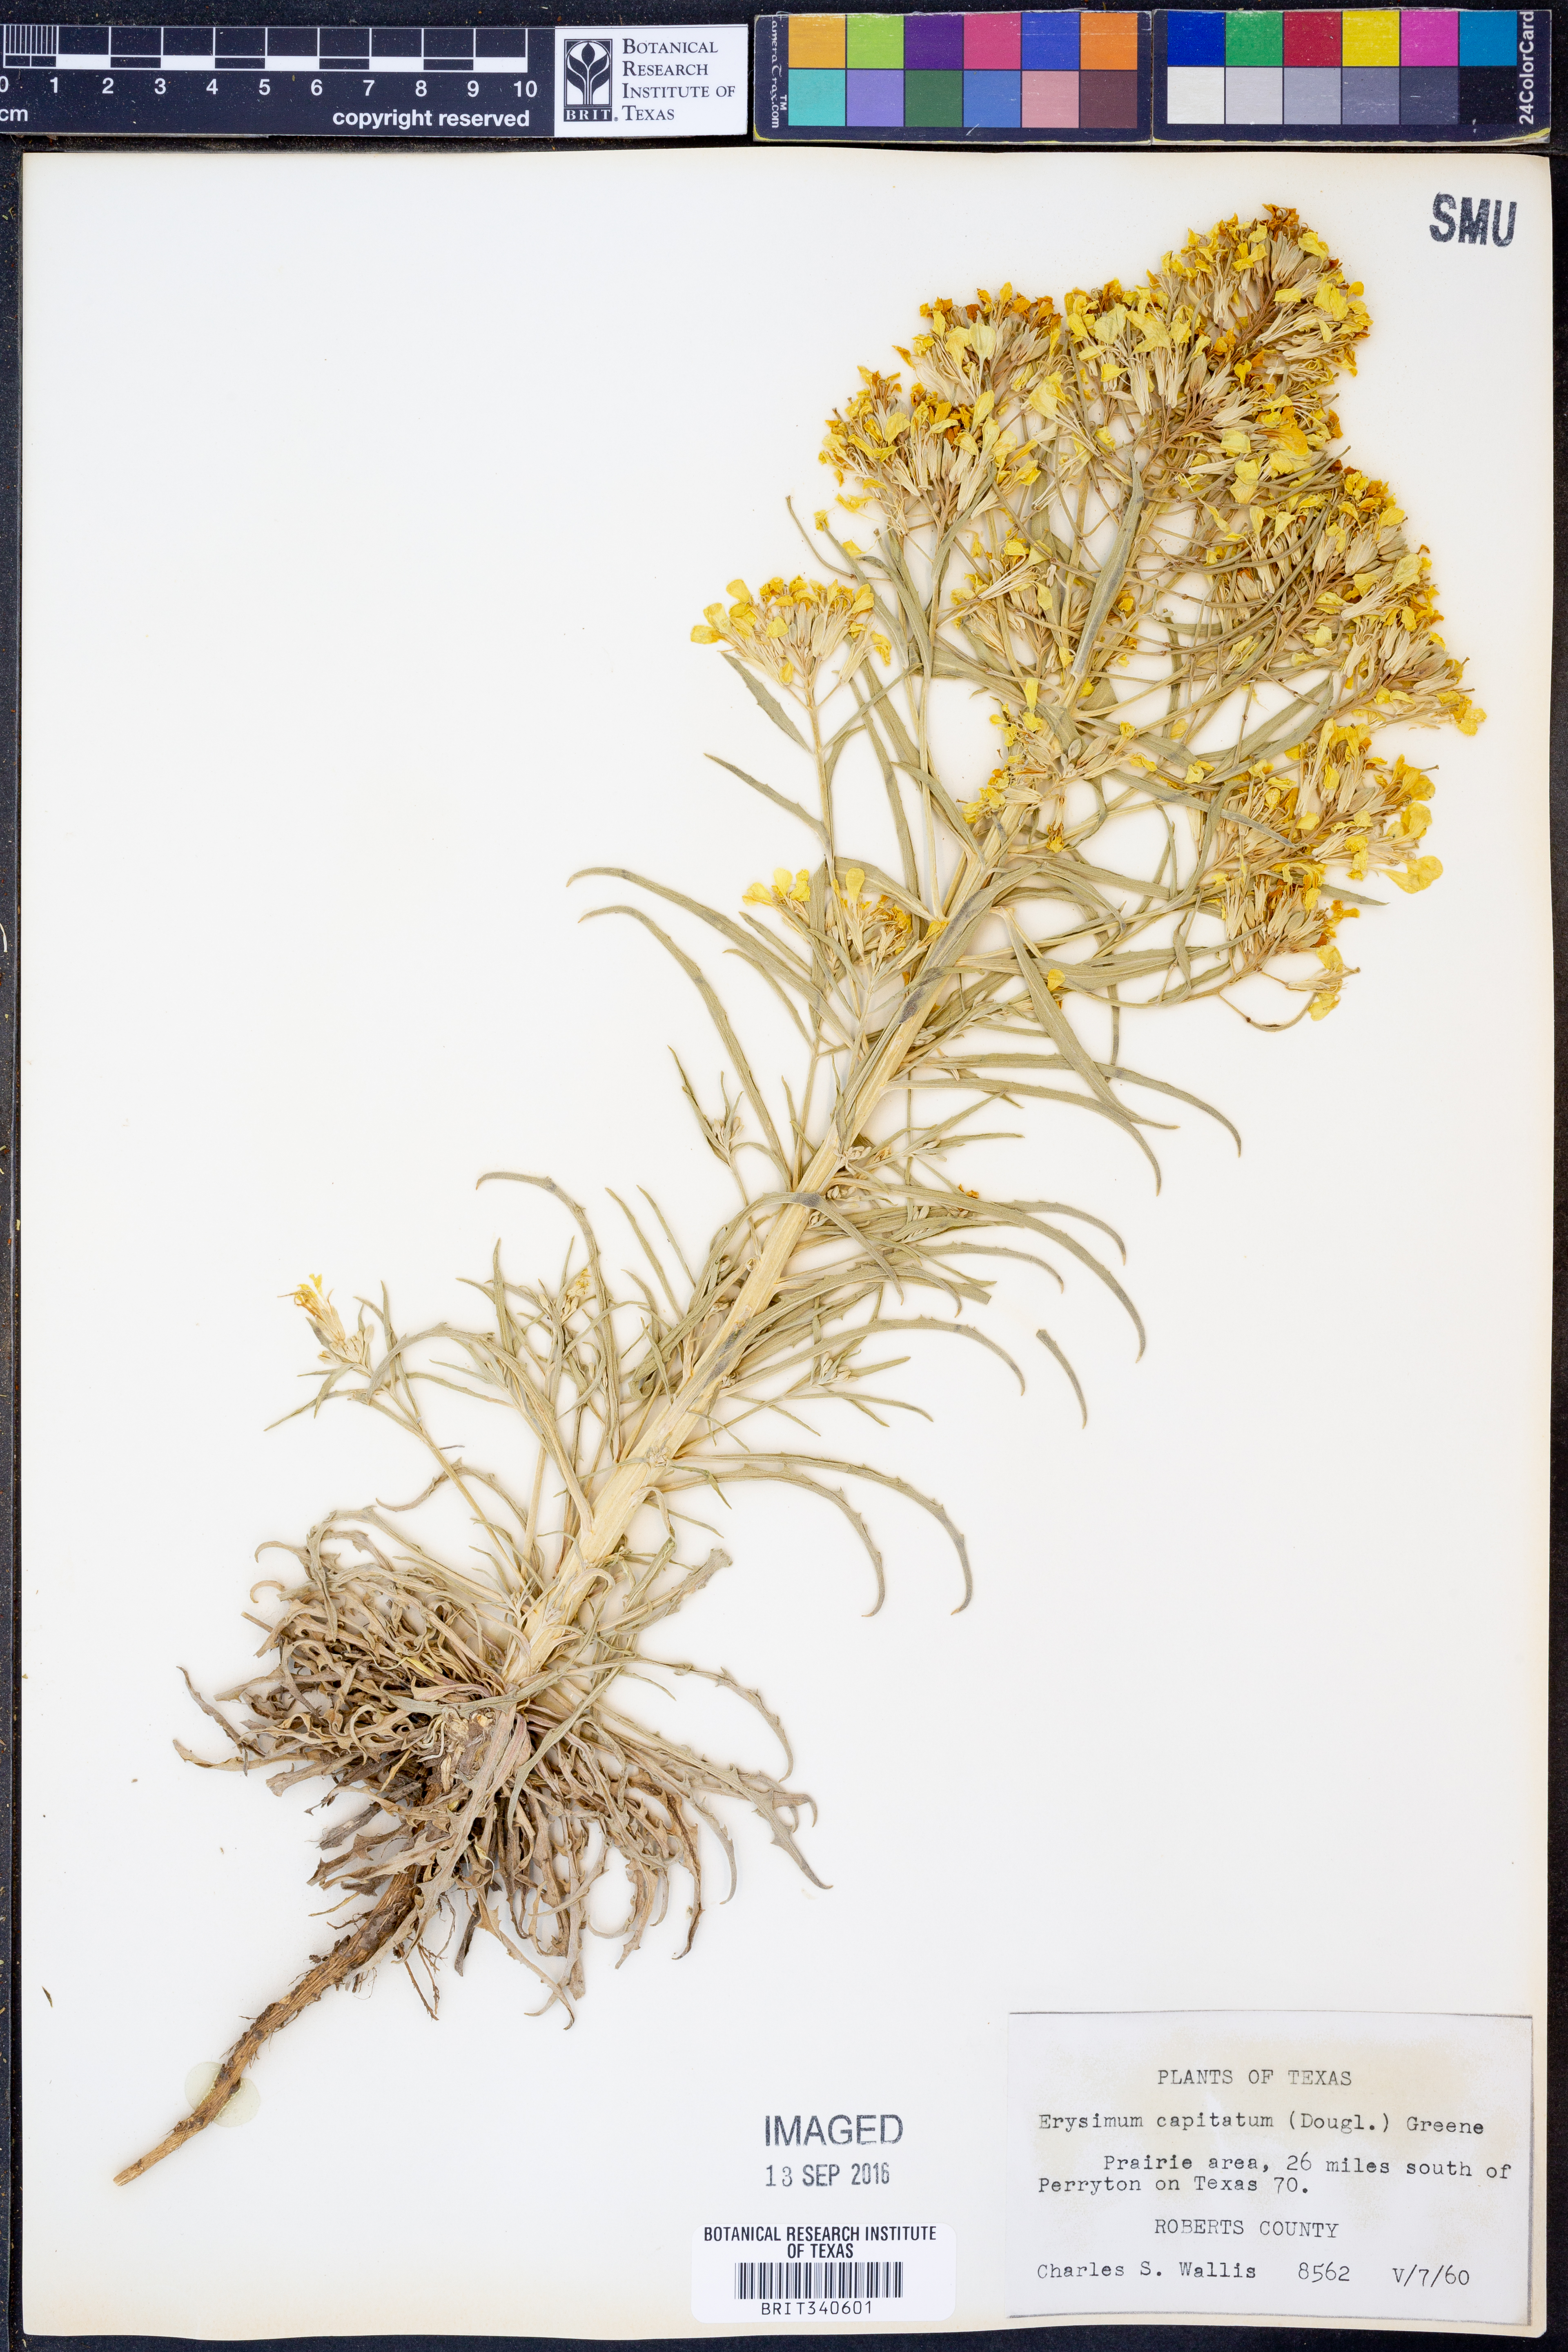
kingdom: Plantae
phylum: Tracheophyta
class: Magnoliopsida
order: Brassicales
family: Brassicaceae
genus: Erysimum
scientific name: Erysimum capitatum
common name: Western wallflower
